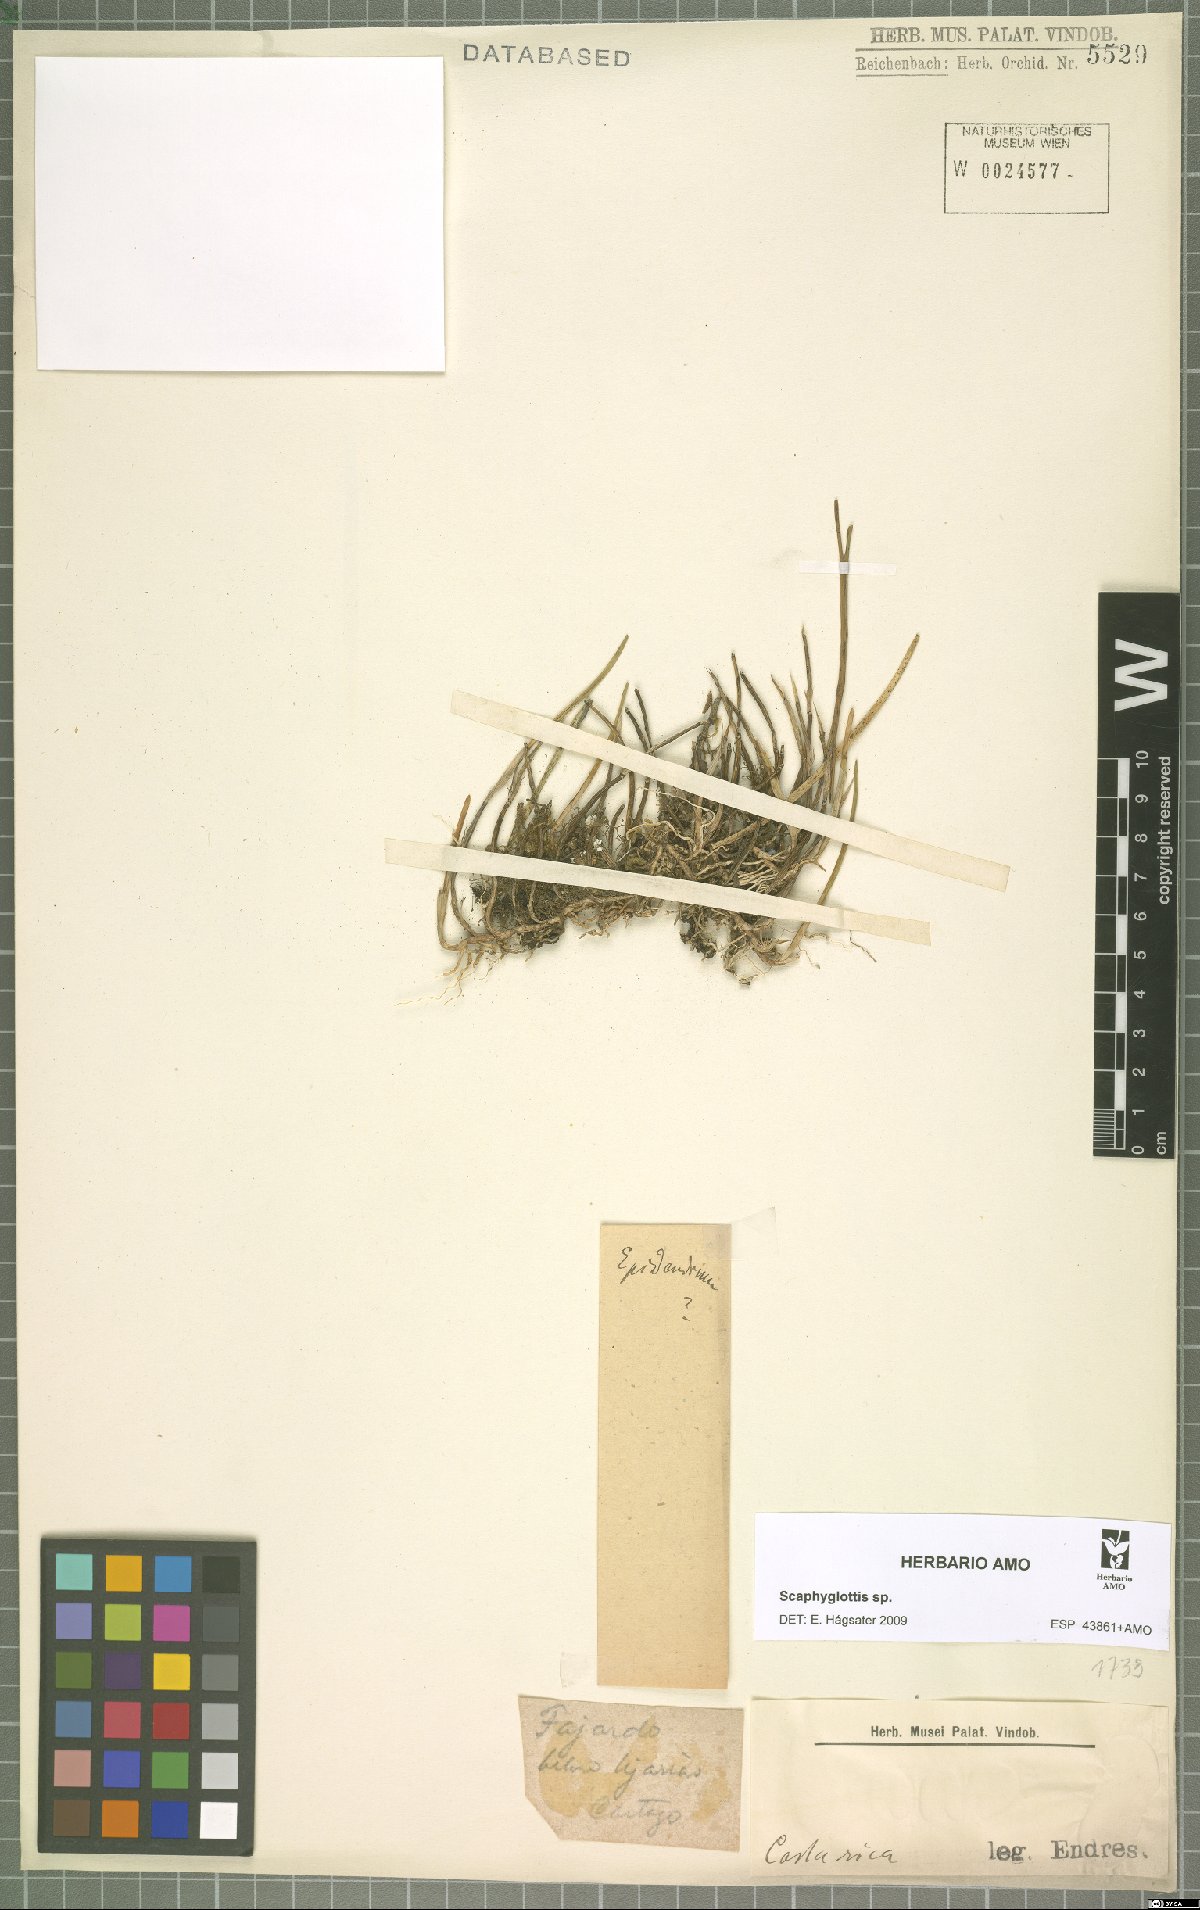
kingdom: Plantae
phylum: Tracheophyta
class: Liliopsida
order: Asparagales
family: Orchidaceae
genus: Scaphyglottis
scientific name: Scaphyglottis
